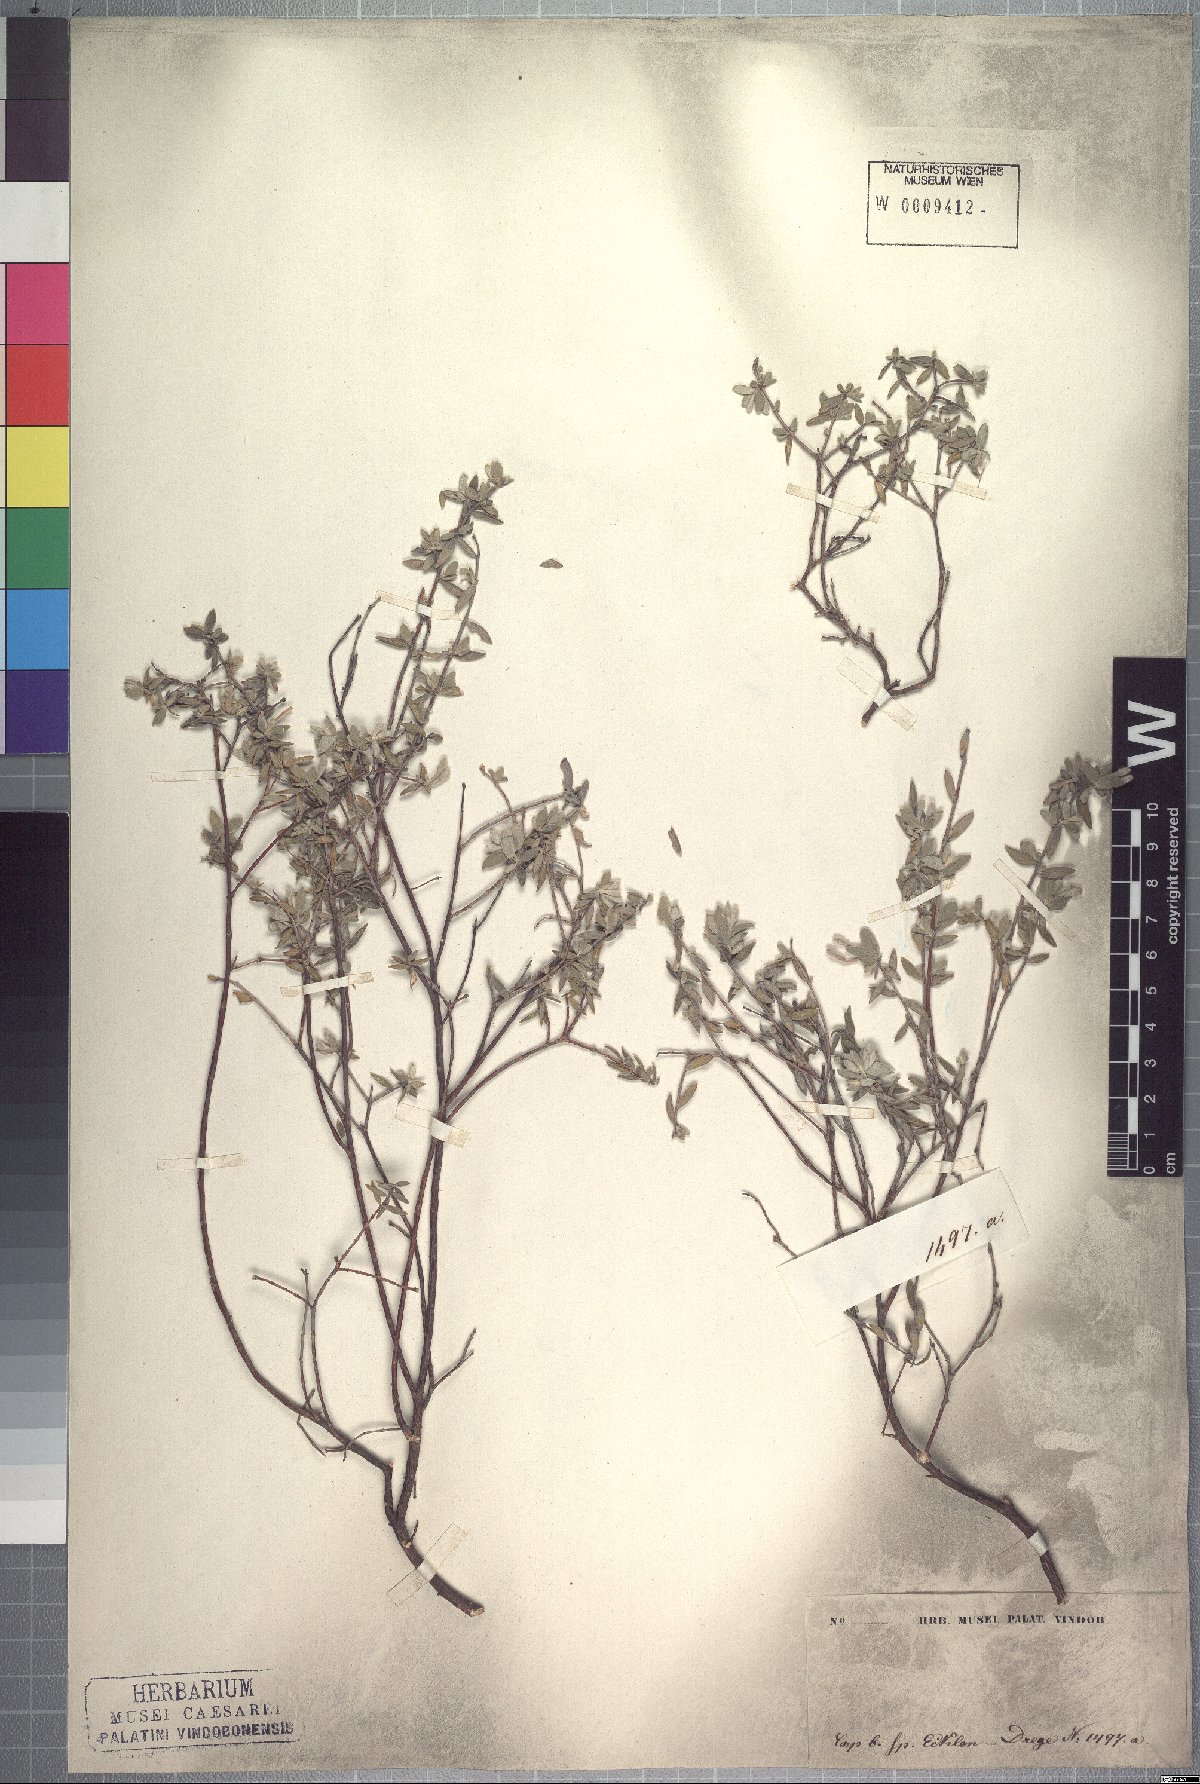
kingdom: Plantae
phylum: Tracheophyta
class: Magnoliopsida
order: Malvales
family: Thymelaeaceae
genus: Gnidia
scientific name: Gnidia imbricata
